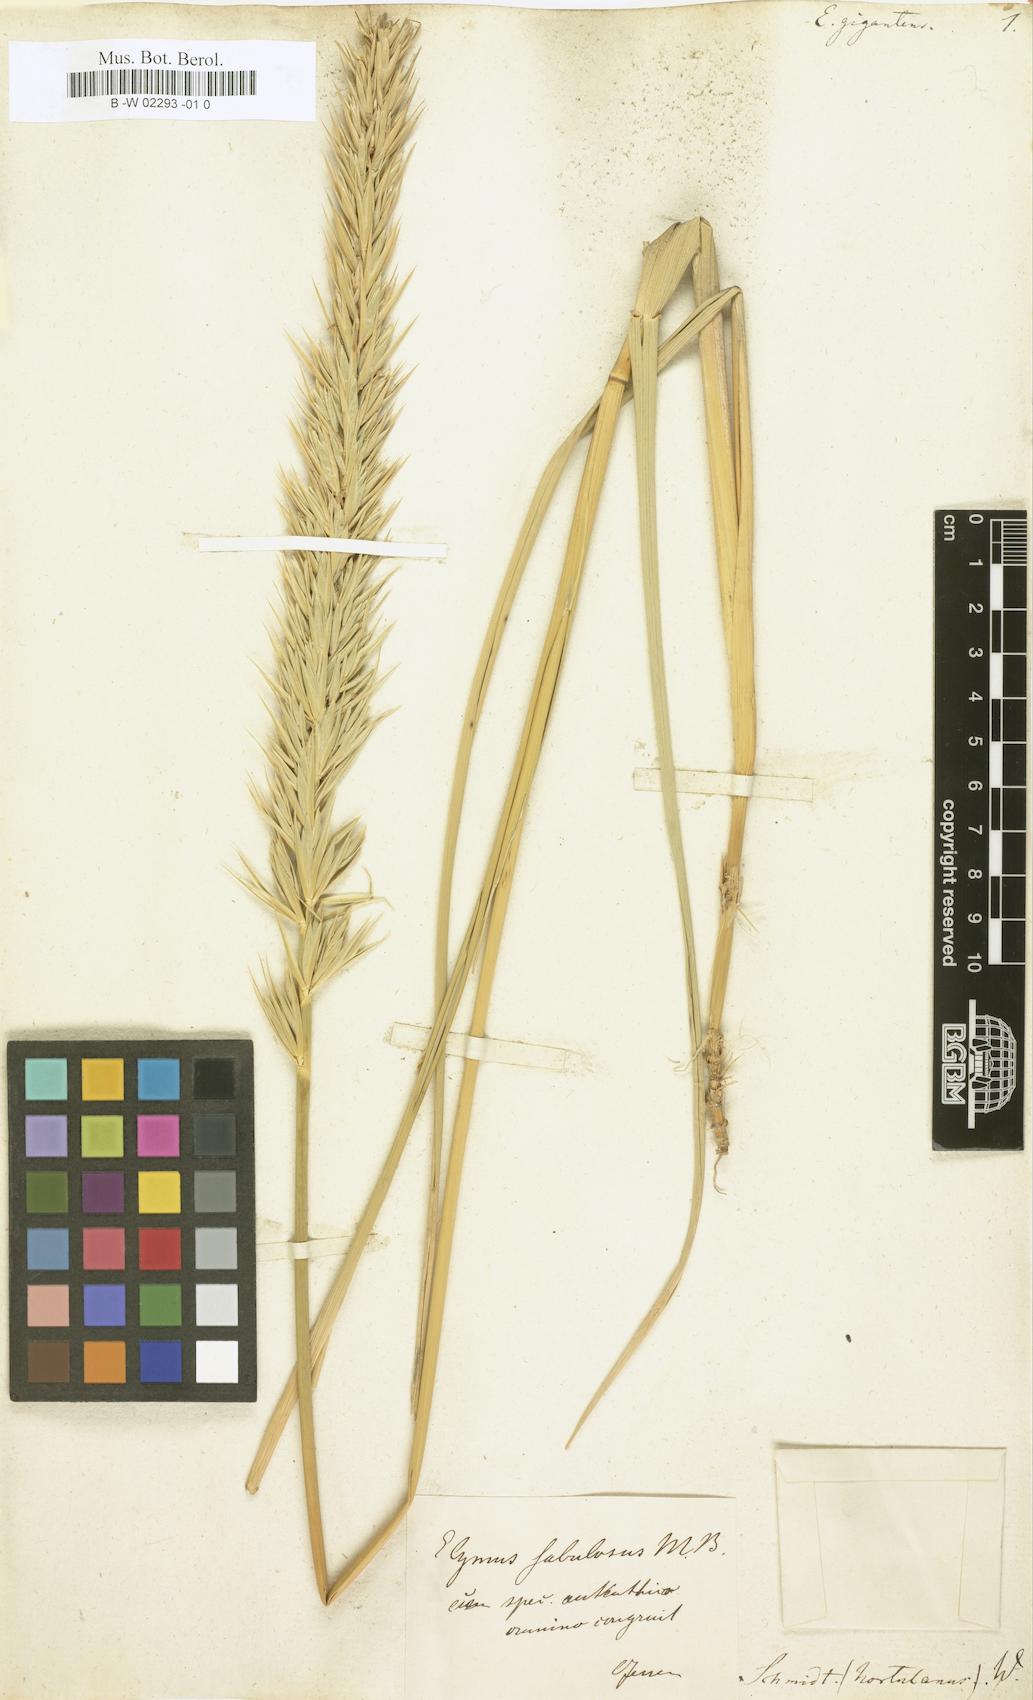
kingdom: Plantae
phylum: Tracheophyta
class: Liliopsida
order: Poales
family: Poaceae
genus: Leymus
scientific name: Leymus racemosus
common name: Mammoth wildrye
